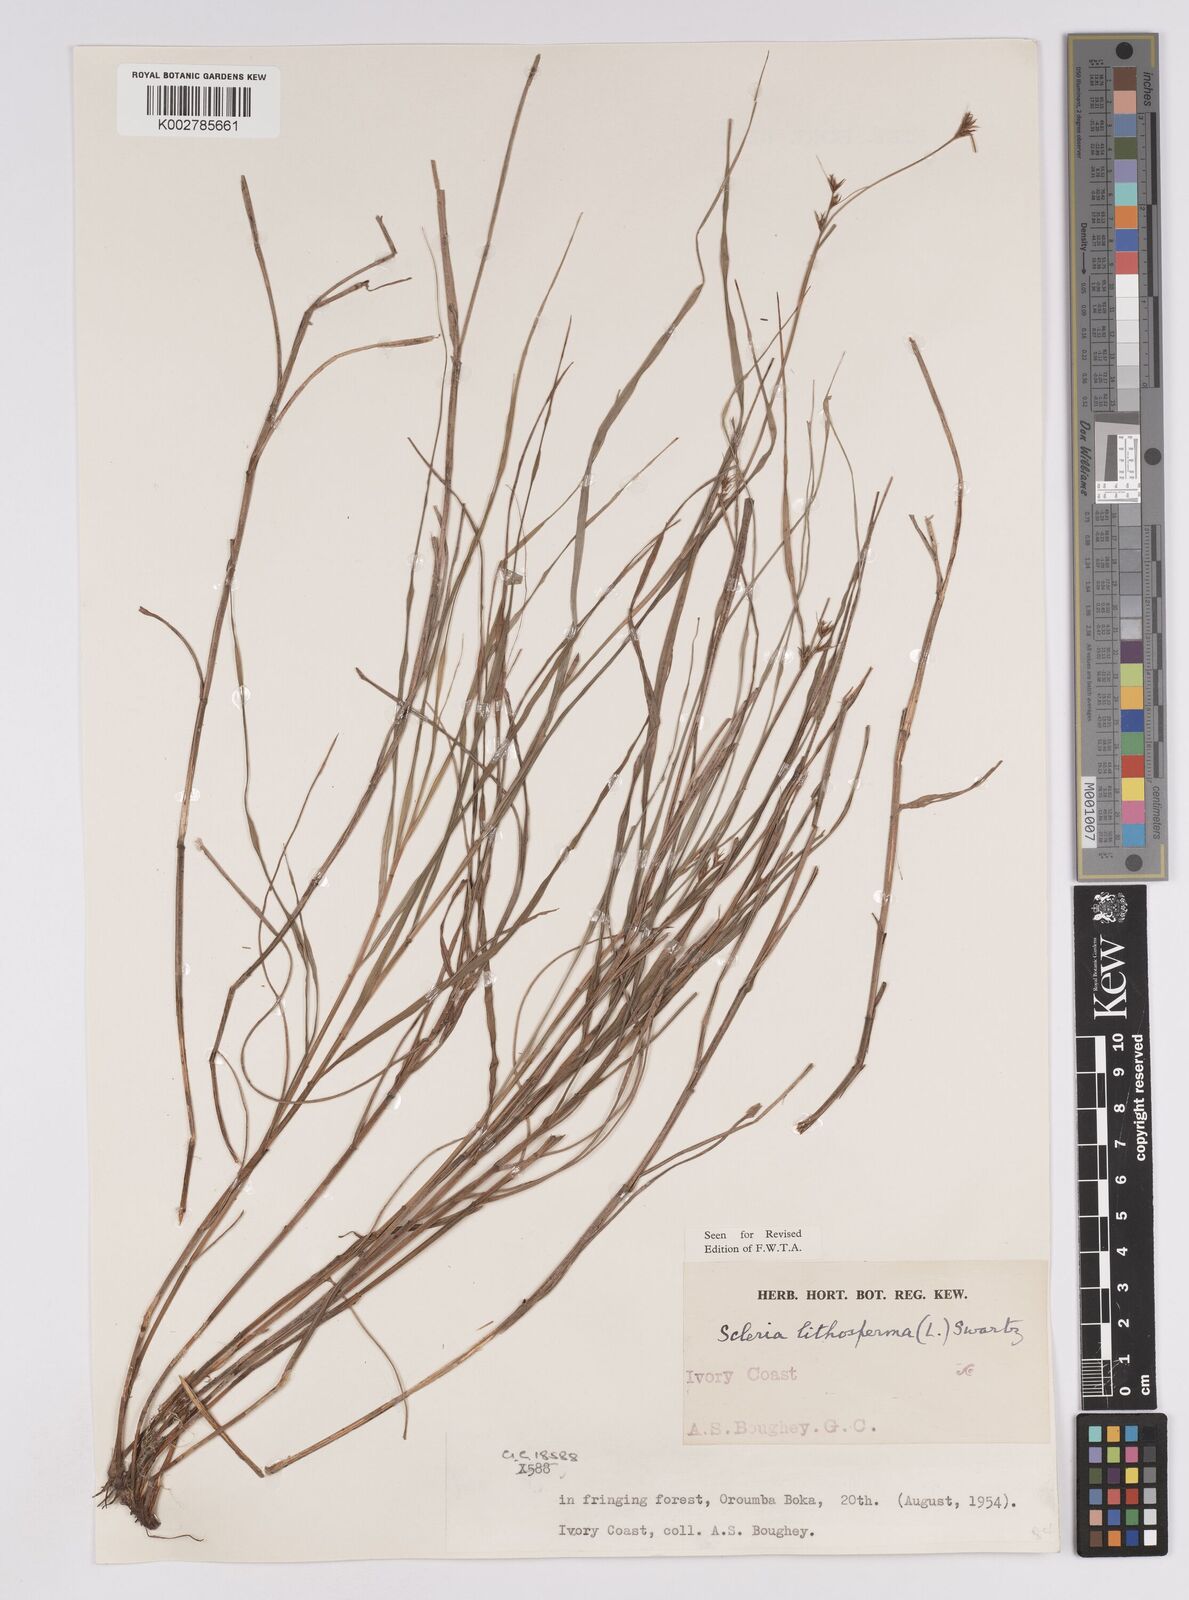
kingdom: Plantae
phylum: Tracheophyta
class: Liliopsida
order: Poales
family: Cyperaceae
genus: Scleria
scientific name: Scleria lithosperma
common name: Florida keys nut-rush
